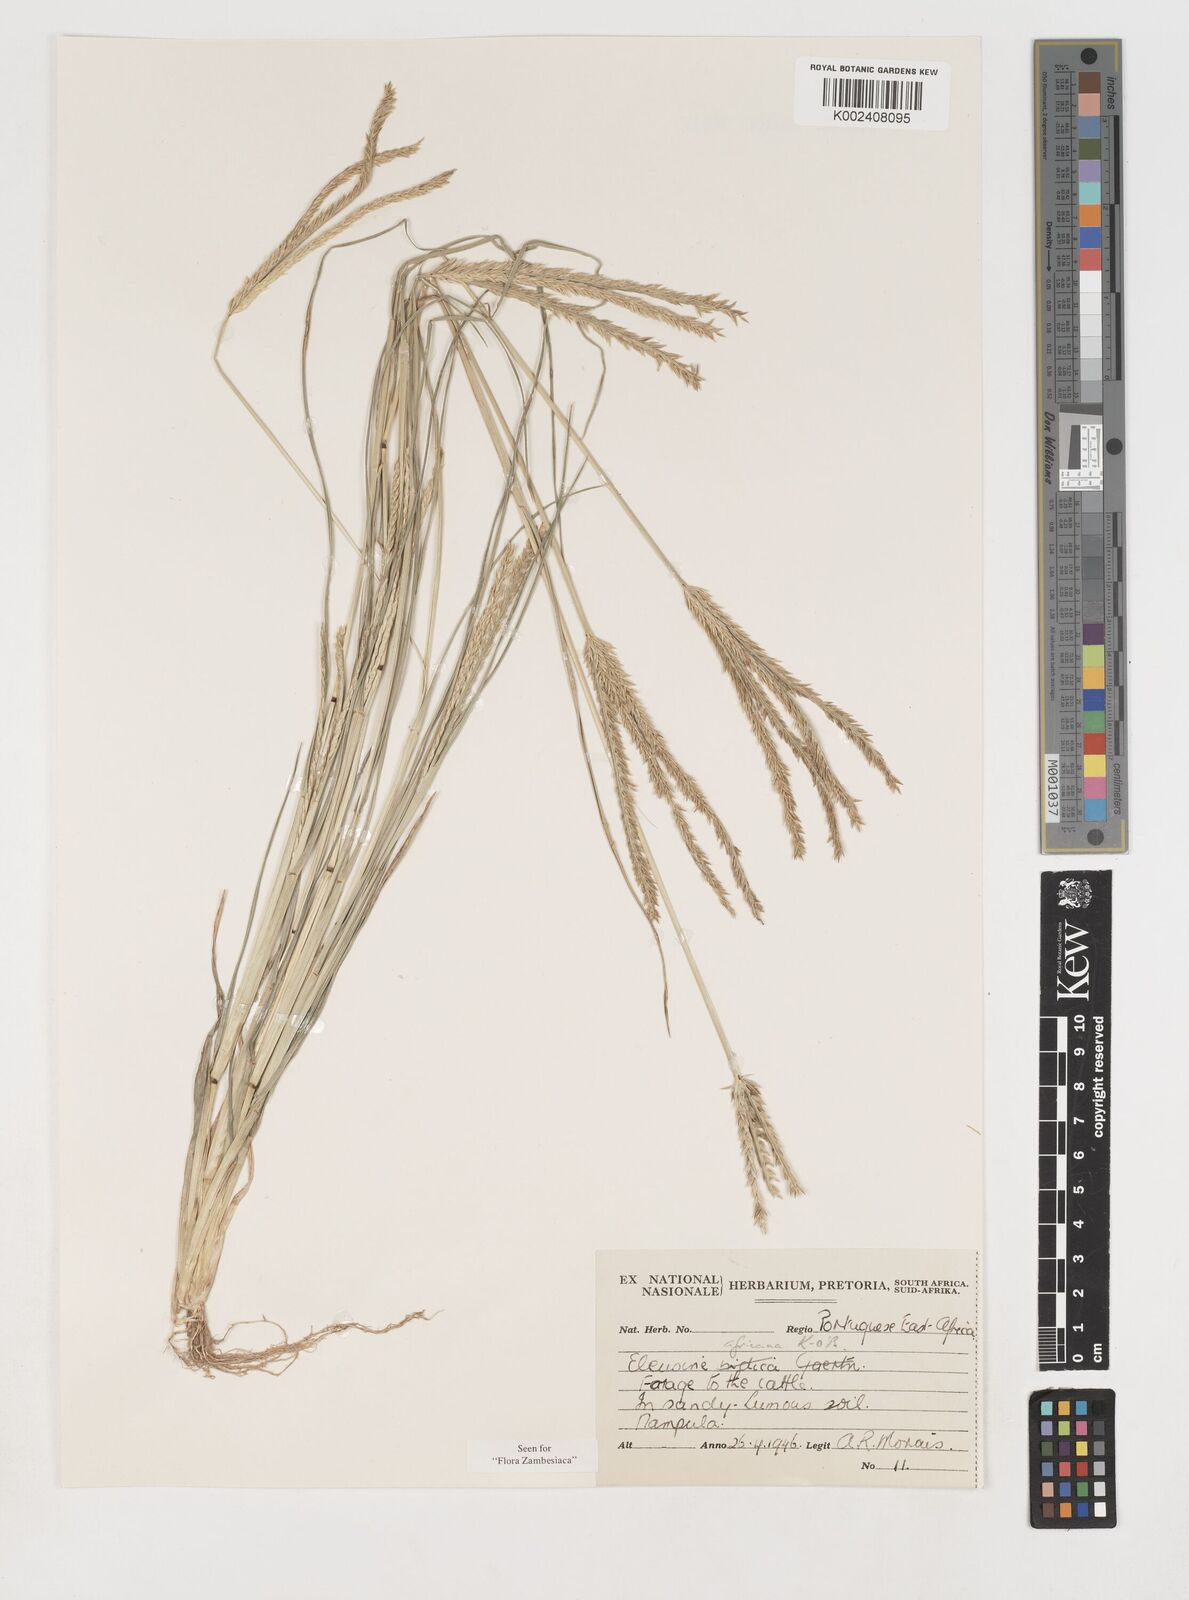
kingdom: Plantae
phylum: Tracheophyta
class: Liliopsida
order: Poales
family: Poaceae
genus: Eleusine
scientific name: Eleusine africana
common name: Wild african finger millet
